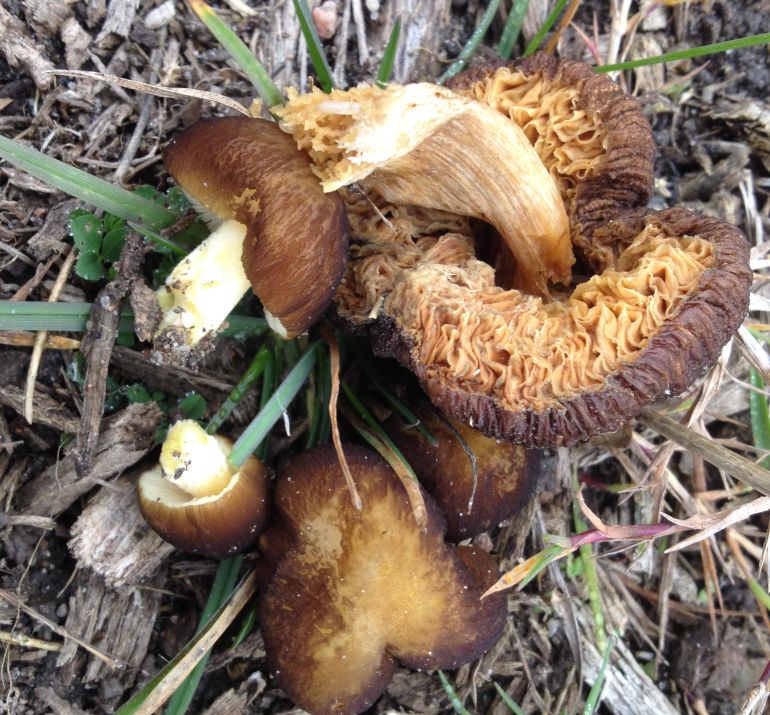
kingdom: Fungi
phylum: Basidiomycota
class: Agaricomycetes
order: Agaricales
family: Pluteaceae
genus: Pluteus
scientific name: Pluteus romellii
